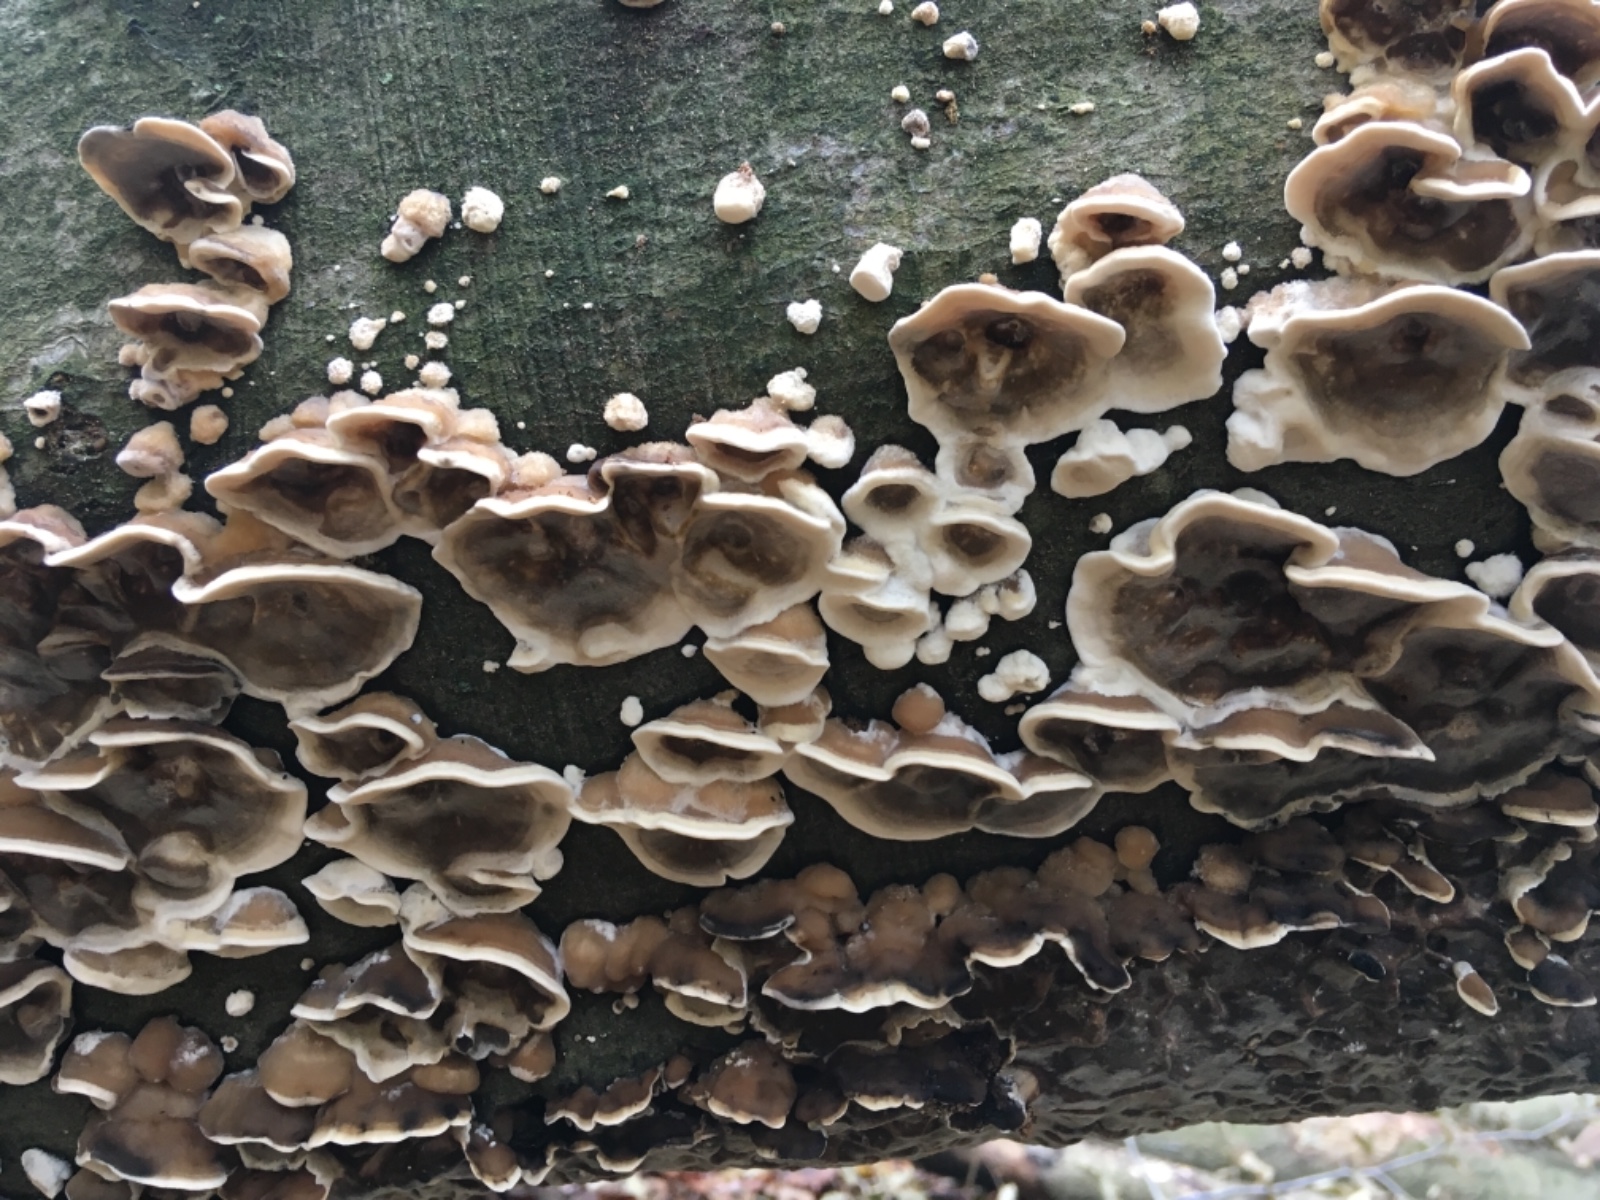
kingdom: Fungi
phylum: Basidiomycota
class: Agaricomycetes
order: Polyporales
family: Phanerochaetaceae
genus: Bjerkandera
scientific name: Bjerkandera adusta
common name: sveden sodporesvamp
